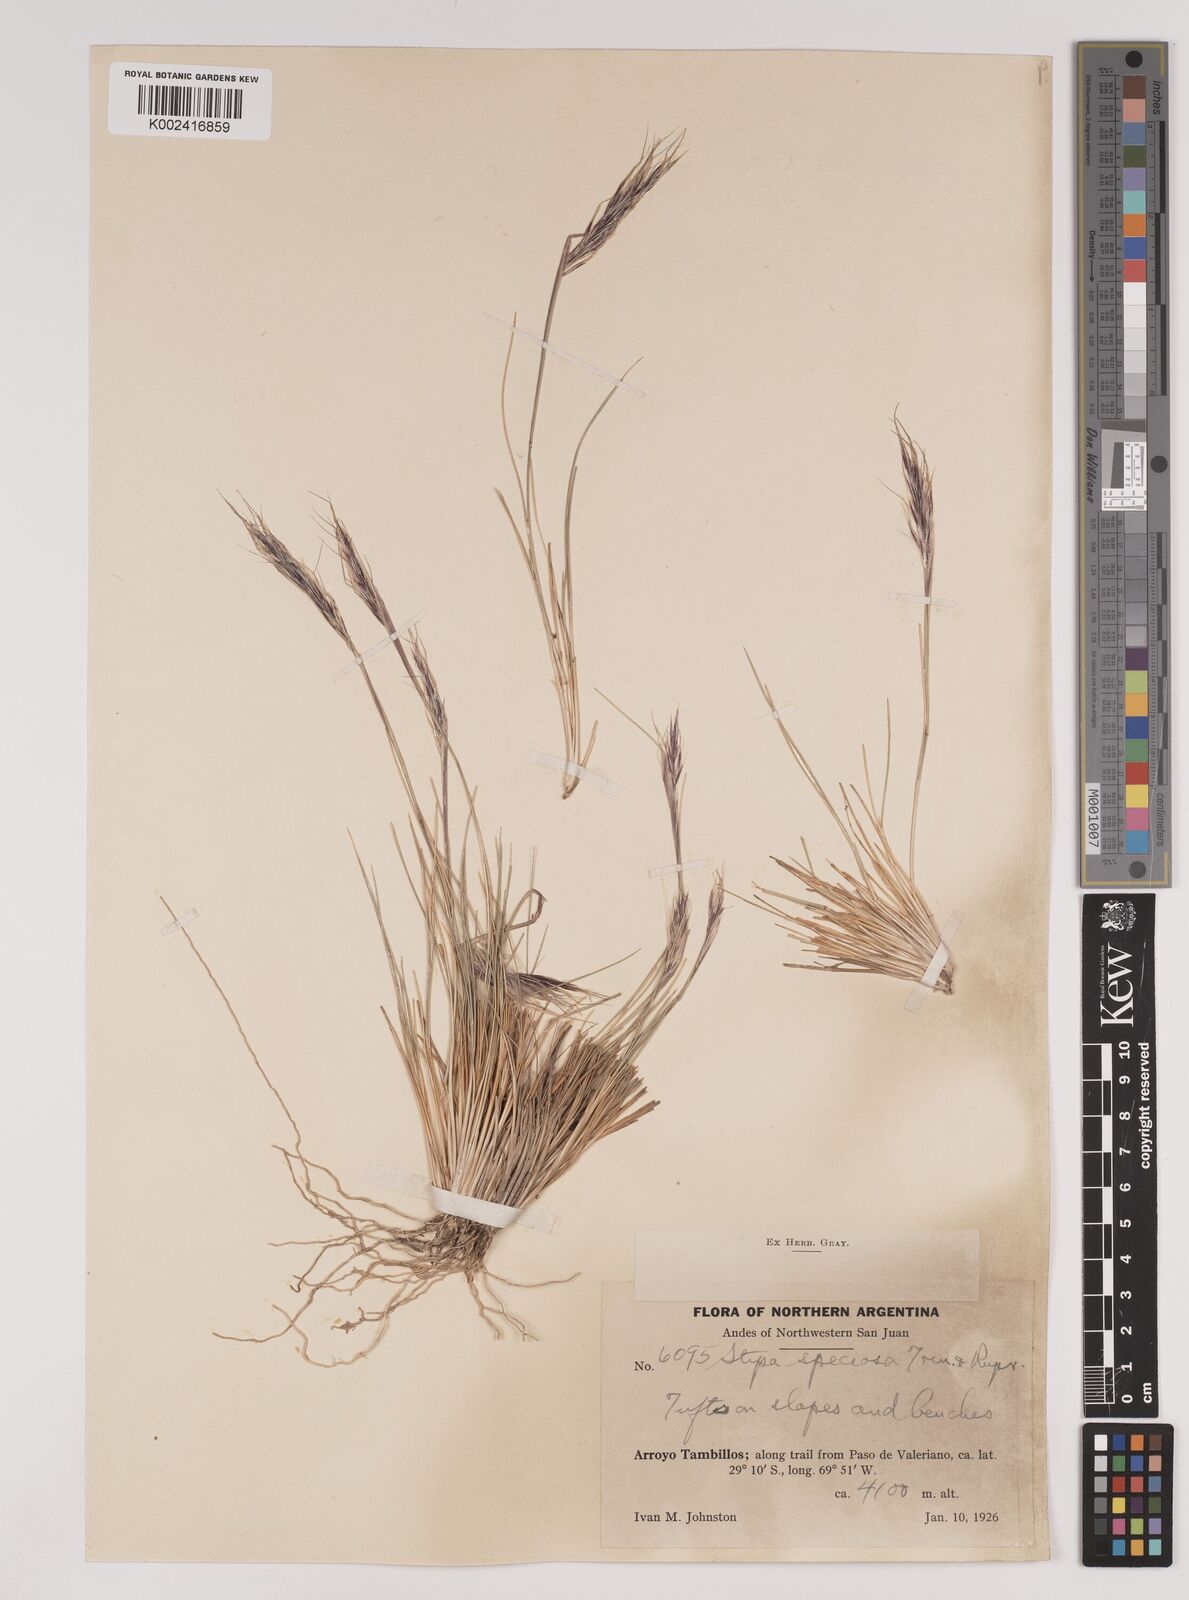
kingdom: Plantae
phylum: Tracheophyta
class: Liliopsida
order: Poales
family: Poaceae
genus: Pappostipa
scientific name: Pappostipa speciosa
